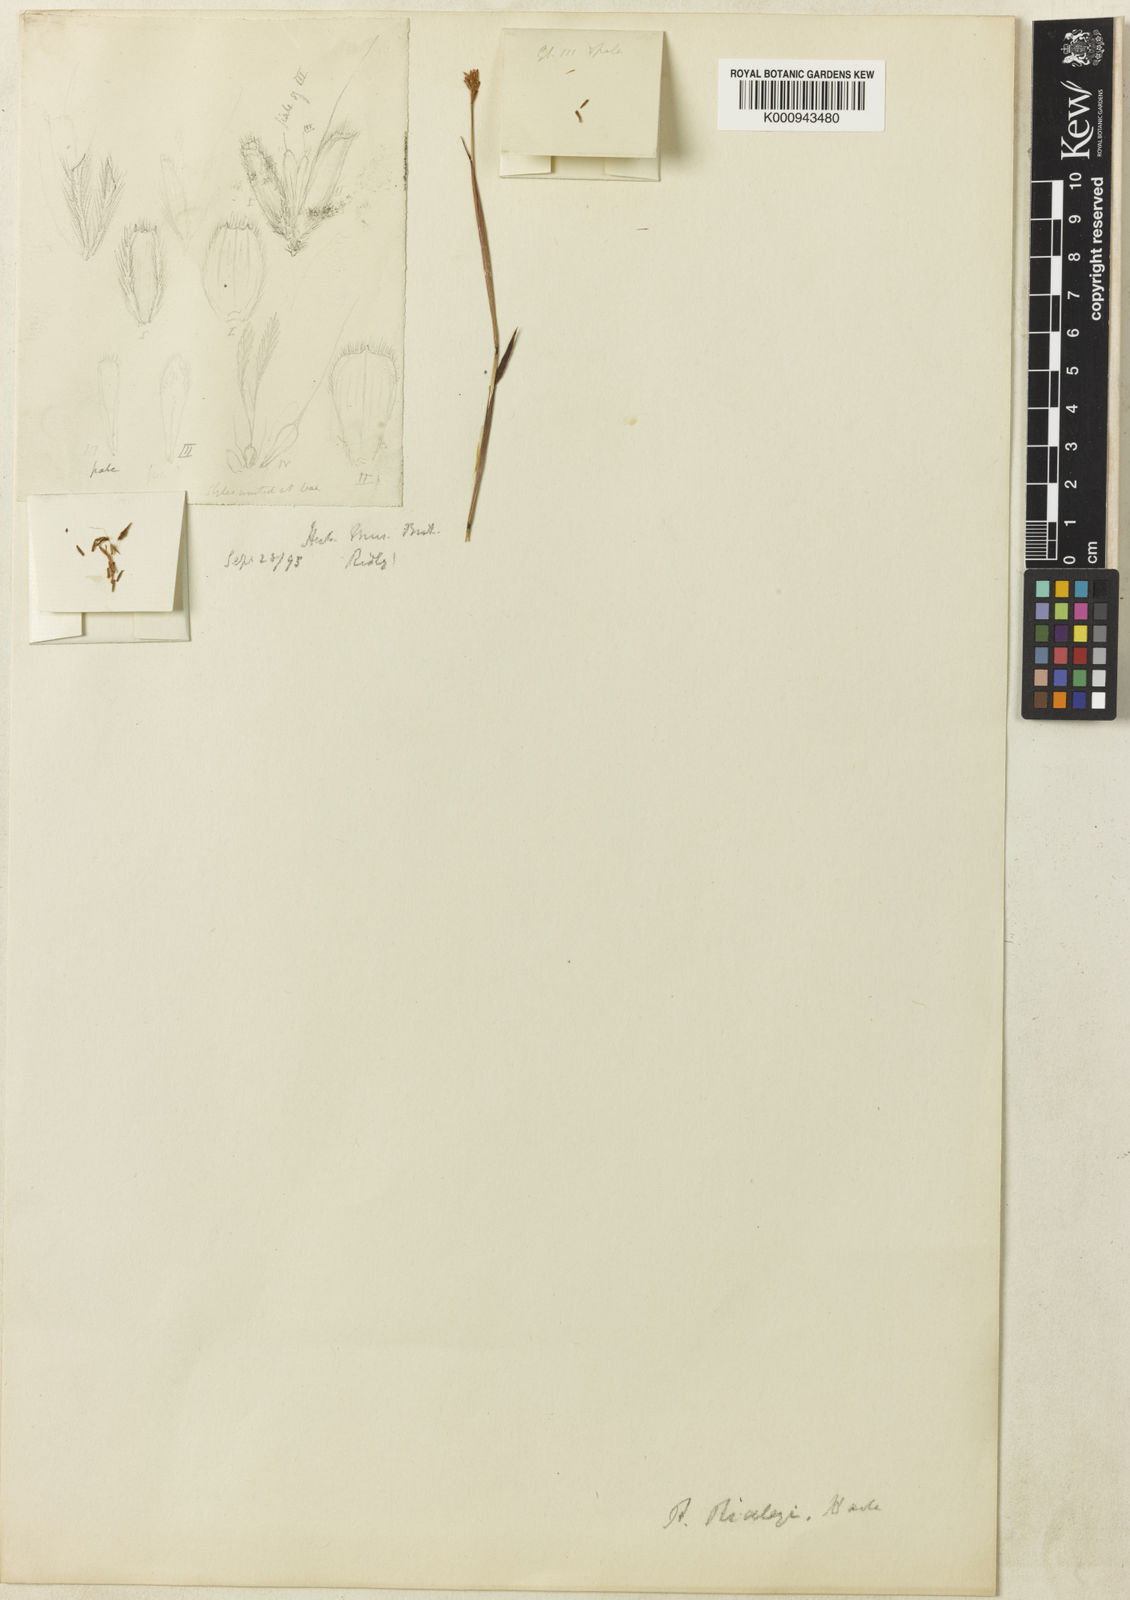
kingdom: Plantae
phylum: Tracheophyta
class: Liliopsida
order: Poales
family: Poaceae
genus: Eulalia
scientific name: Eulalia ridleyi
